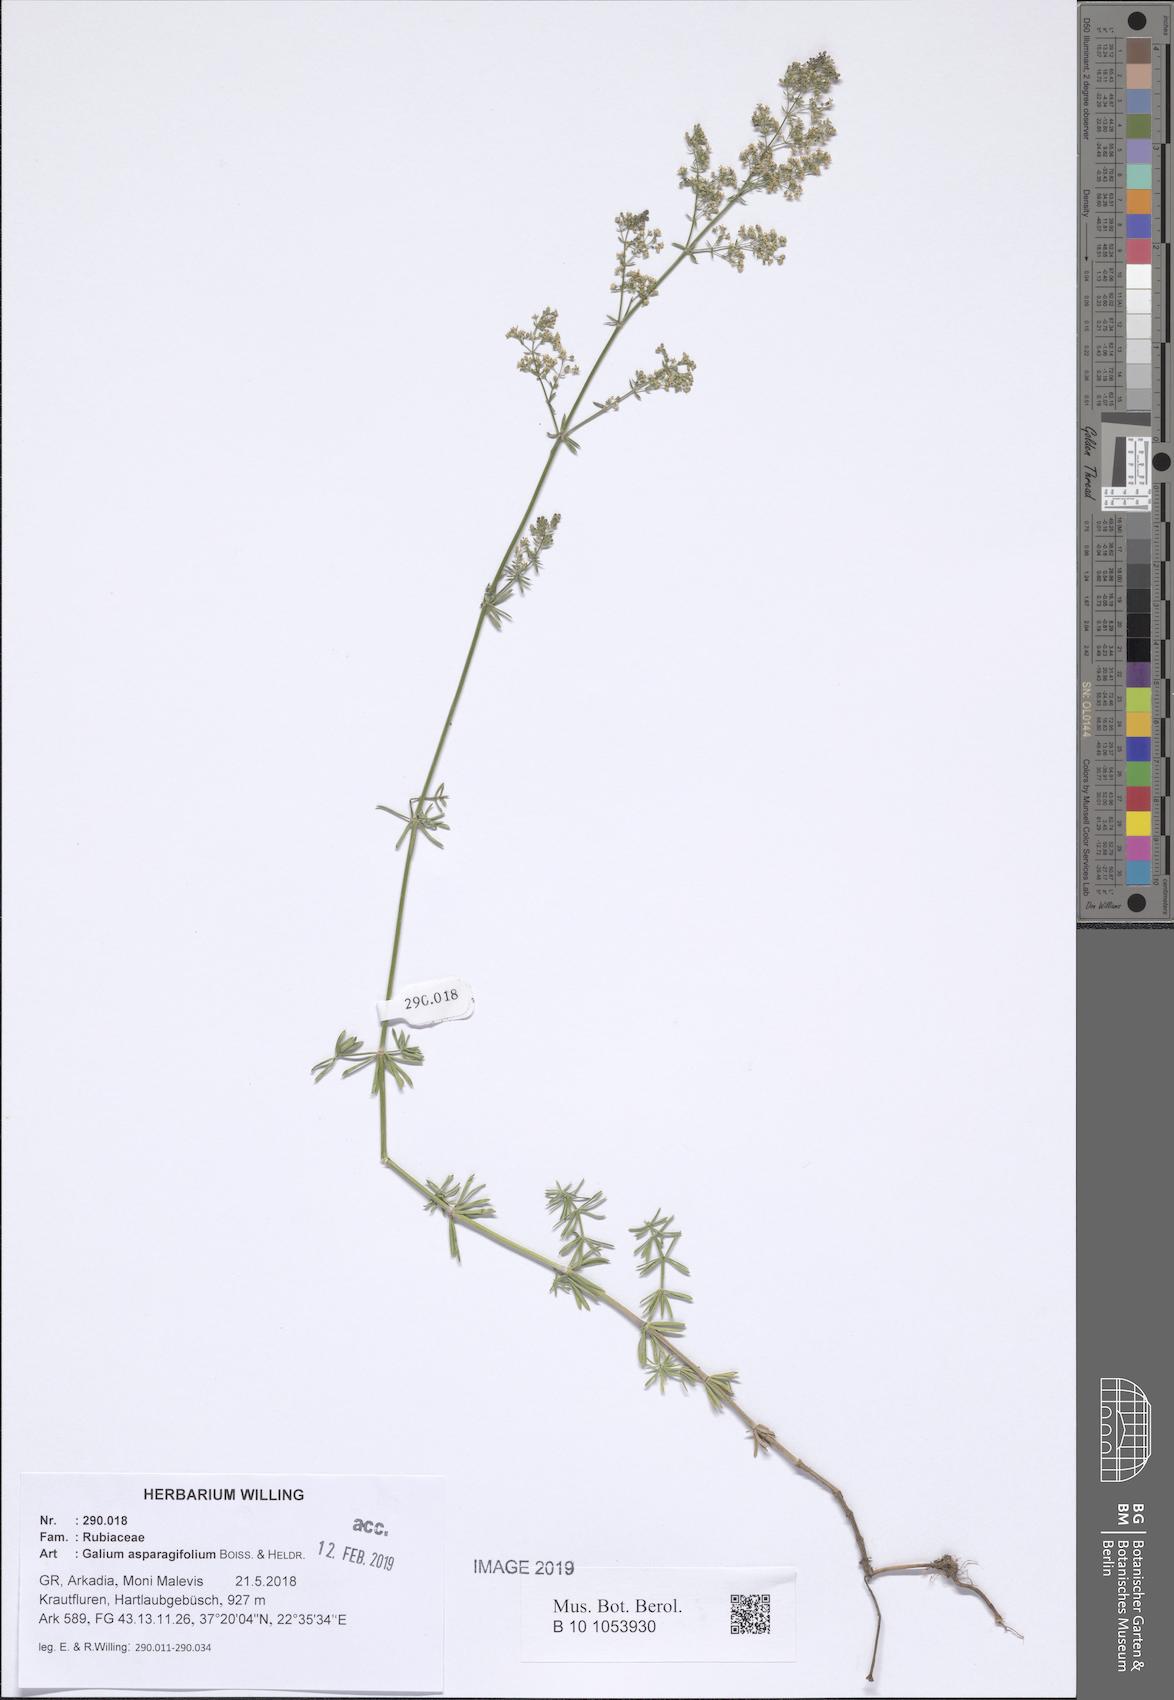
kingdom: Plantae
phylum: Tracheophyta
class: Magnoliopsida
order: Gentianales
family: Rubiaceae
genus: Galium
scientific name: Galium asparagifolium
